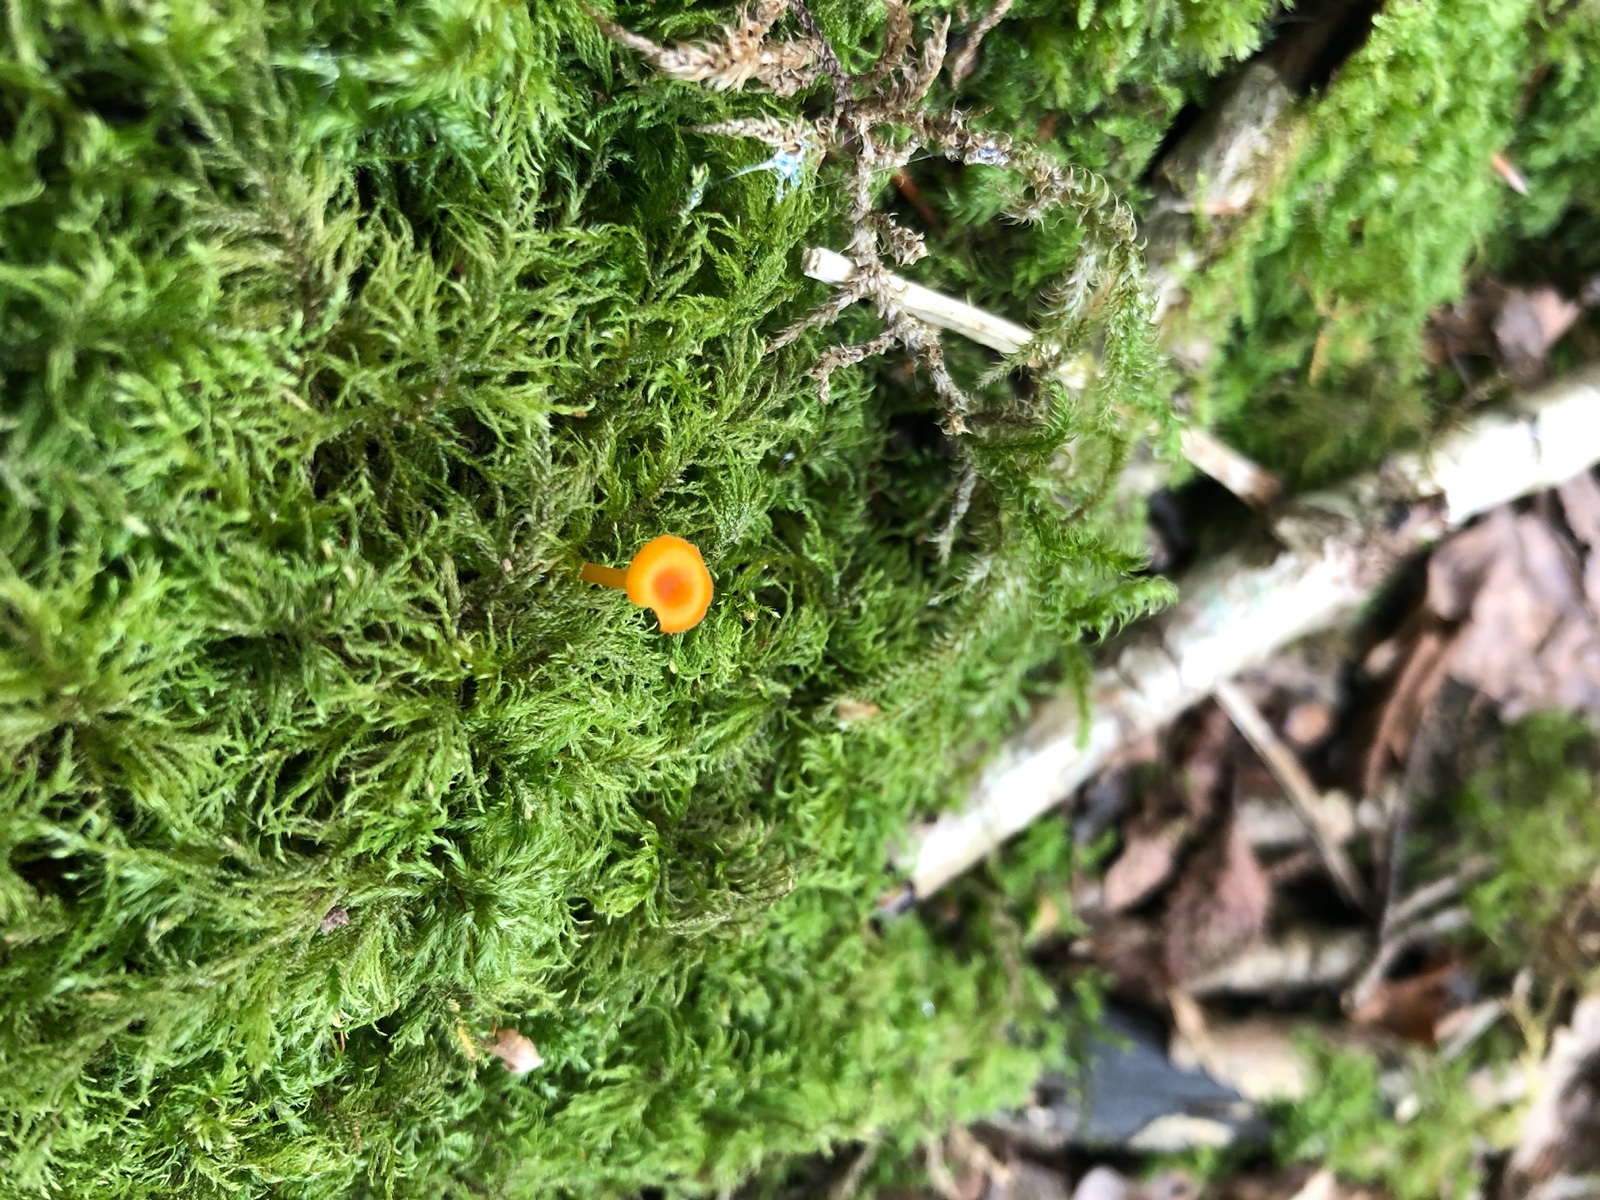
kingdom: Fungi
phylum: Basidiomycota
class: Agaricomycetes
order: Hymenochaetales
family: Rickenellaceae
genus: Rickenella
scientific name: Rickenella fibula
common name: orange mosnavlehat
